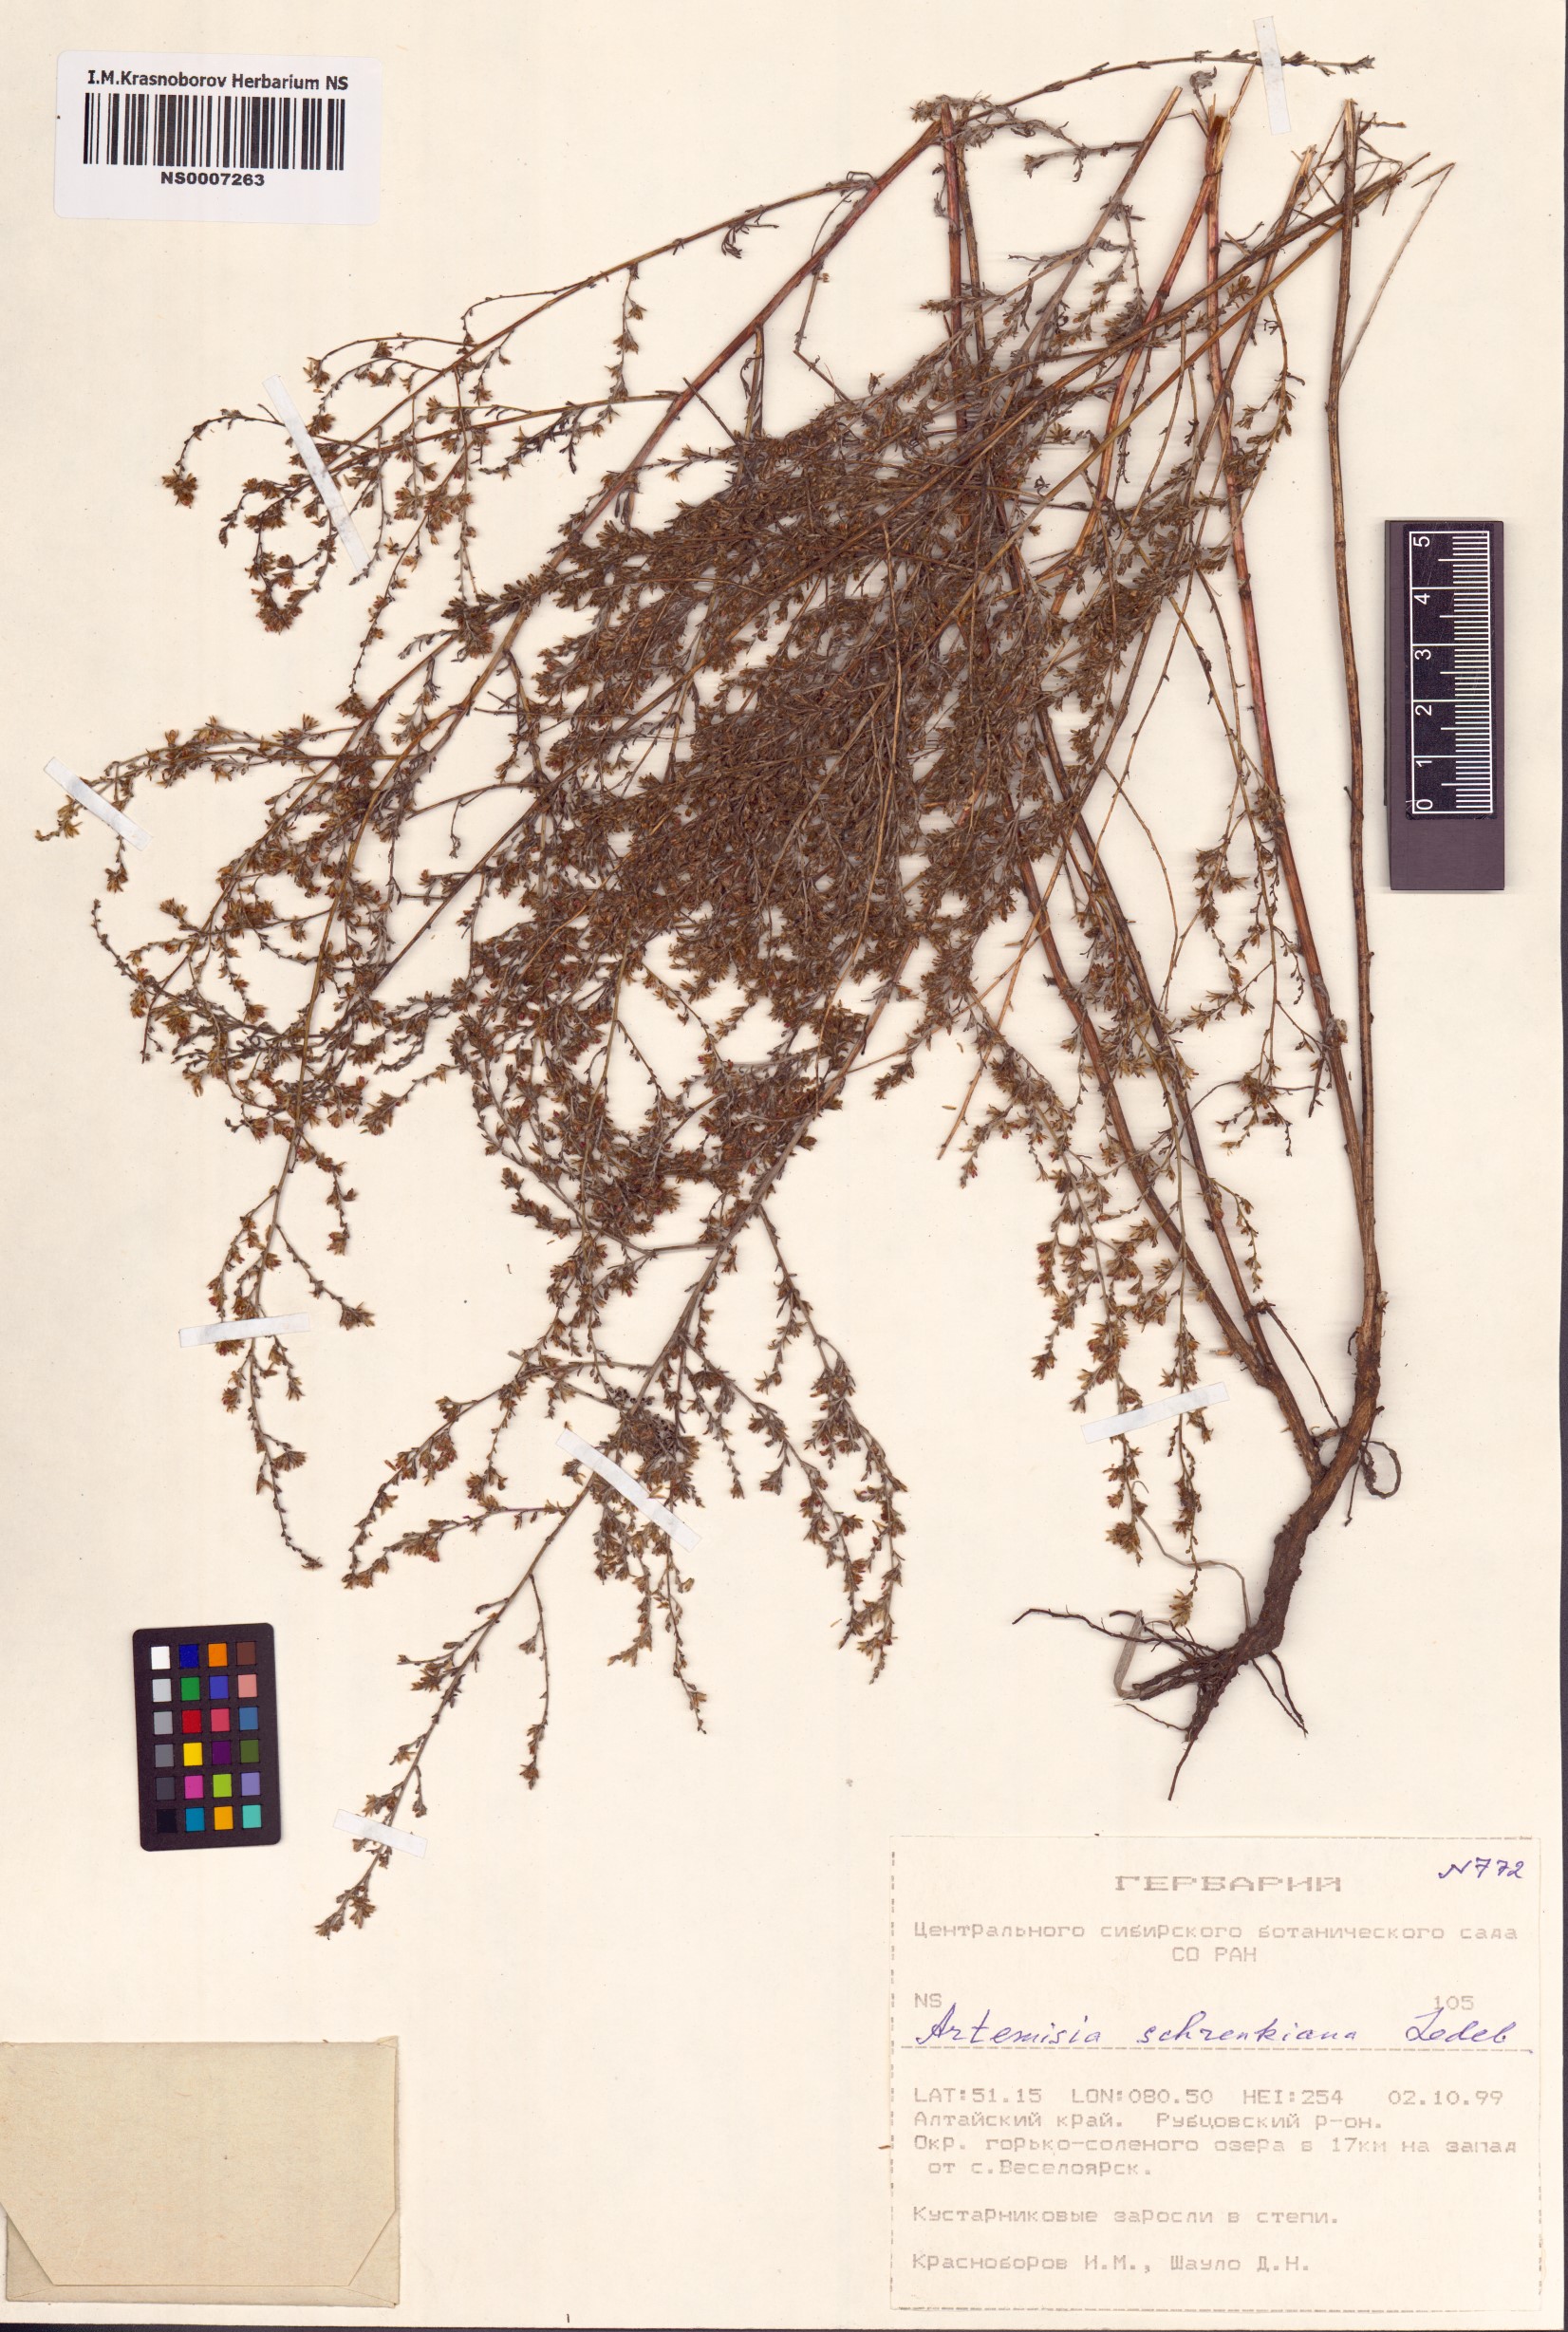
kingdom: Plantae
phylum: Tracheophyta
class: Magnoliopsida
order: Asterales
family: Asteraceae
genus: Artemisia
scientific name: Artemisia schrenkiana
